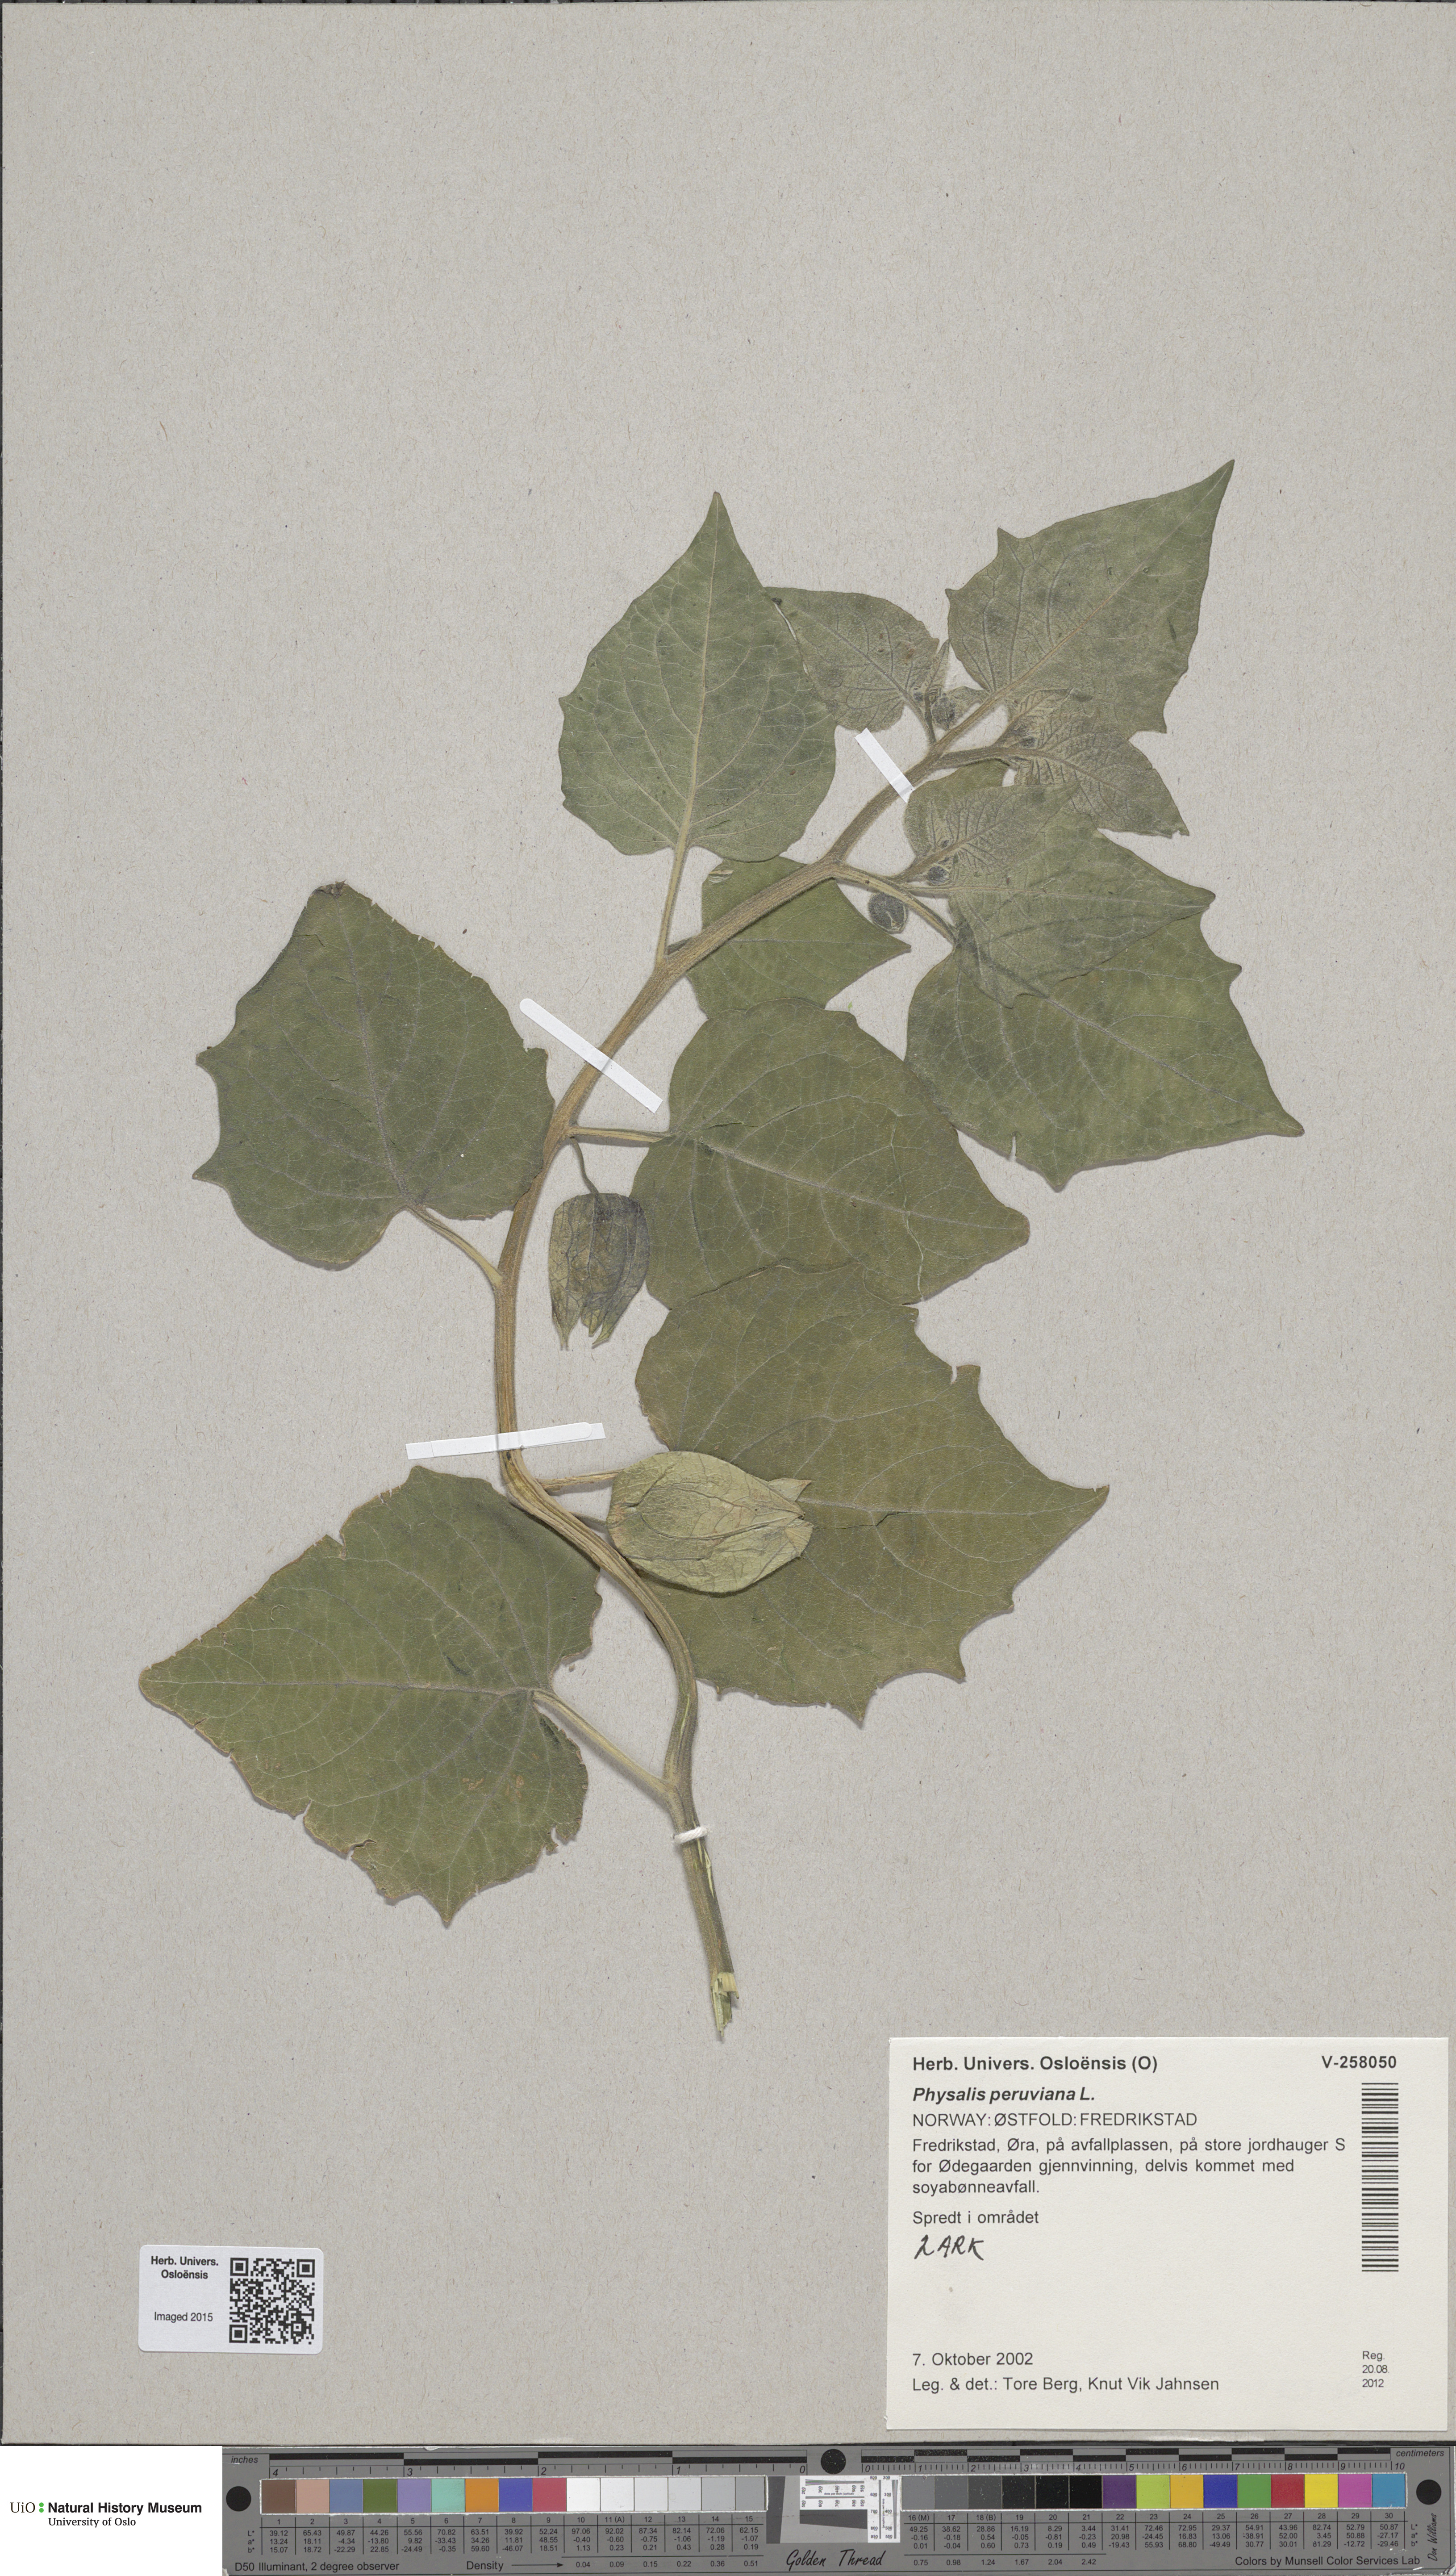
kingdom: Plantae
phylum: Tracheophyta
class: Magnoliopsida
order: Solanales
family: Solanaceae
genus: Physalis
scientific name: Physalis peruviana
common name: Cape-gooseberry
